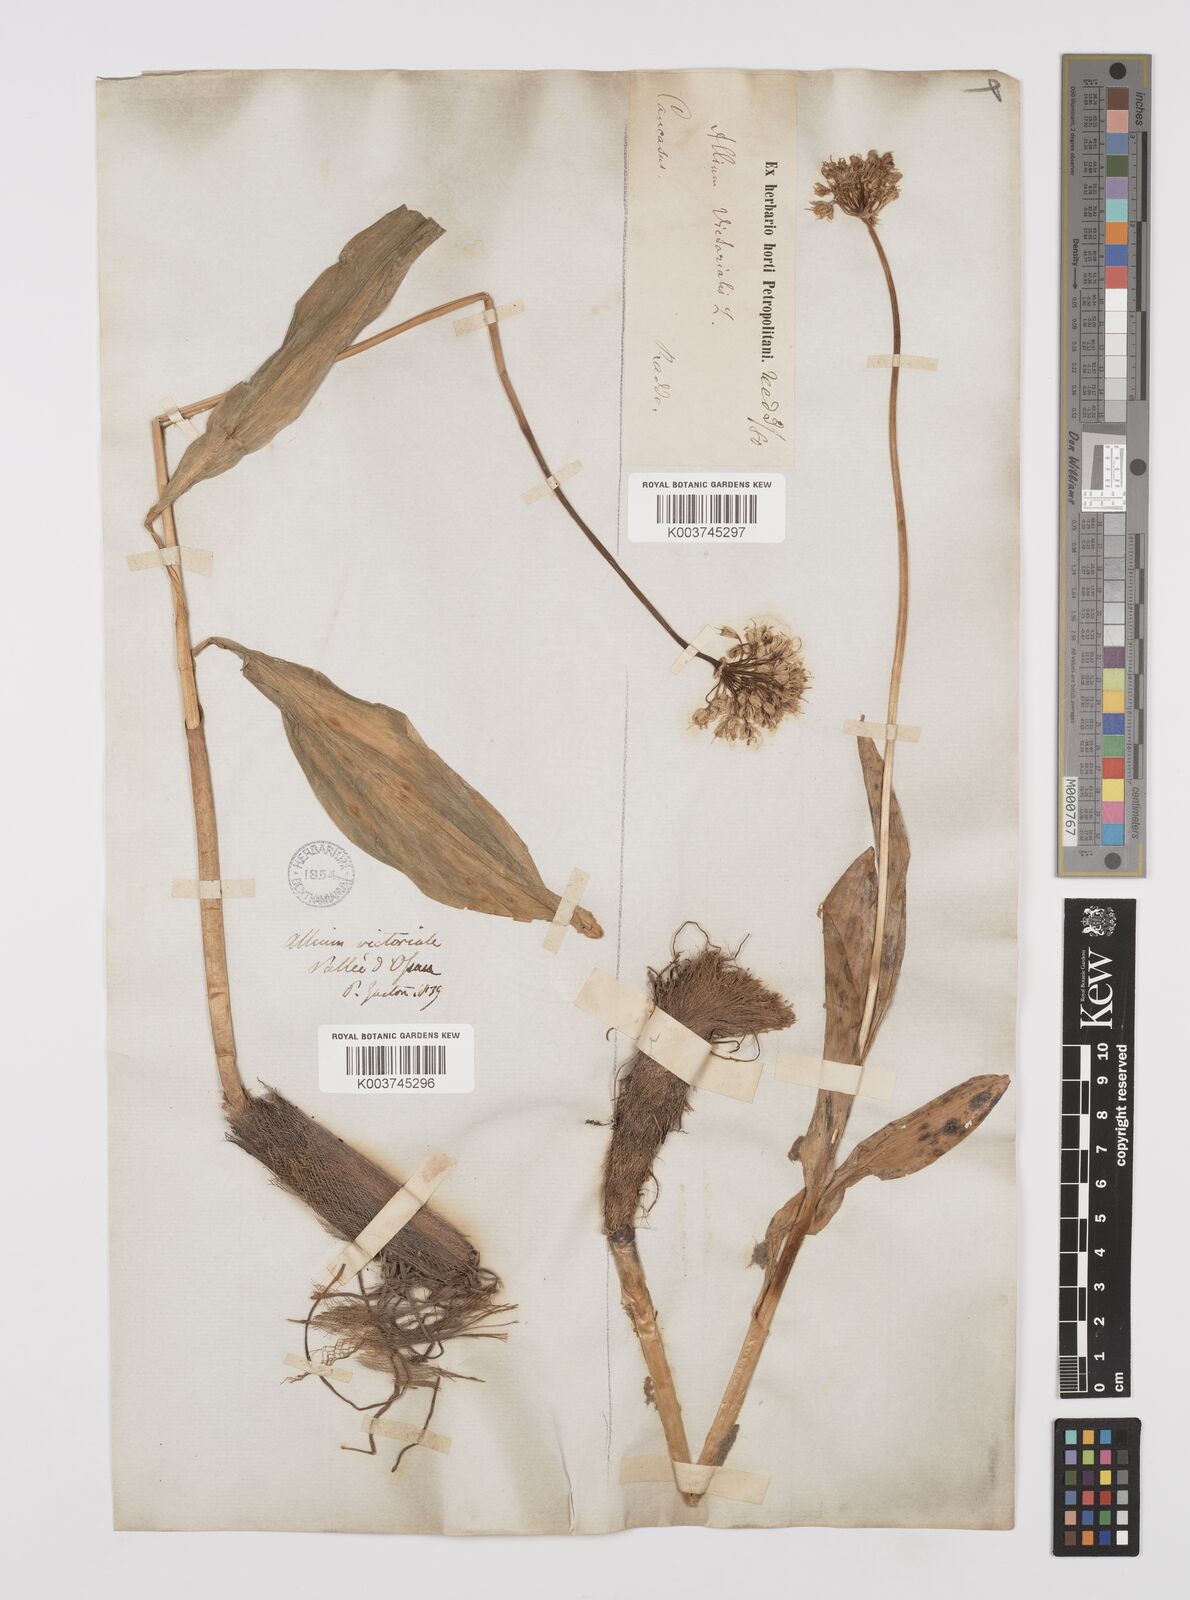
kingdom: Plantae
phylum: Tracheophyta
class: Liliopsida
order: Asparagales
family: Amaryllidaceae
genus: Allium
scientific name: Allium victorialis
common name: Alpine leek
